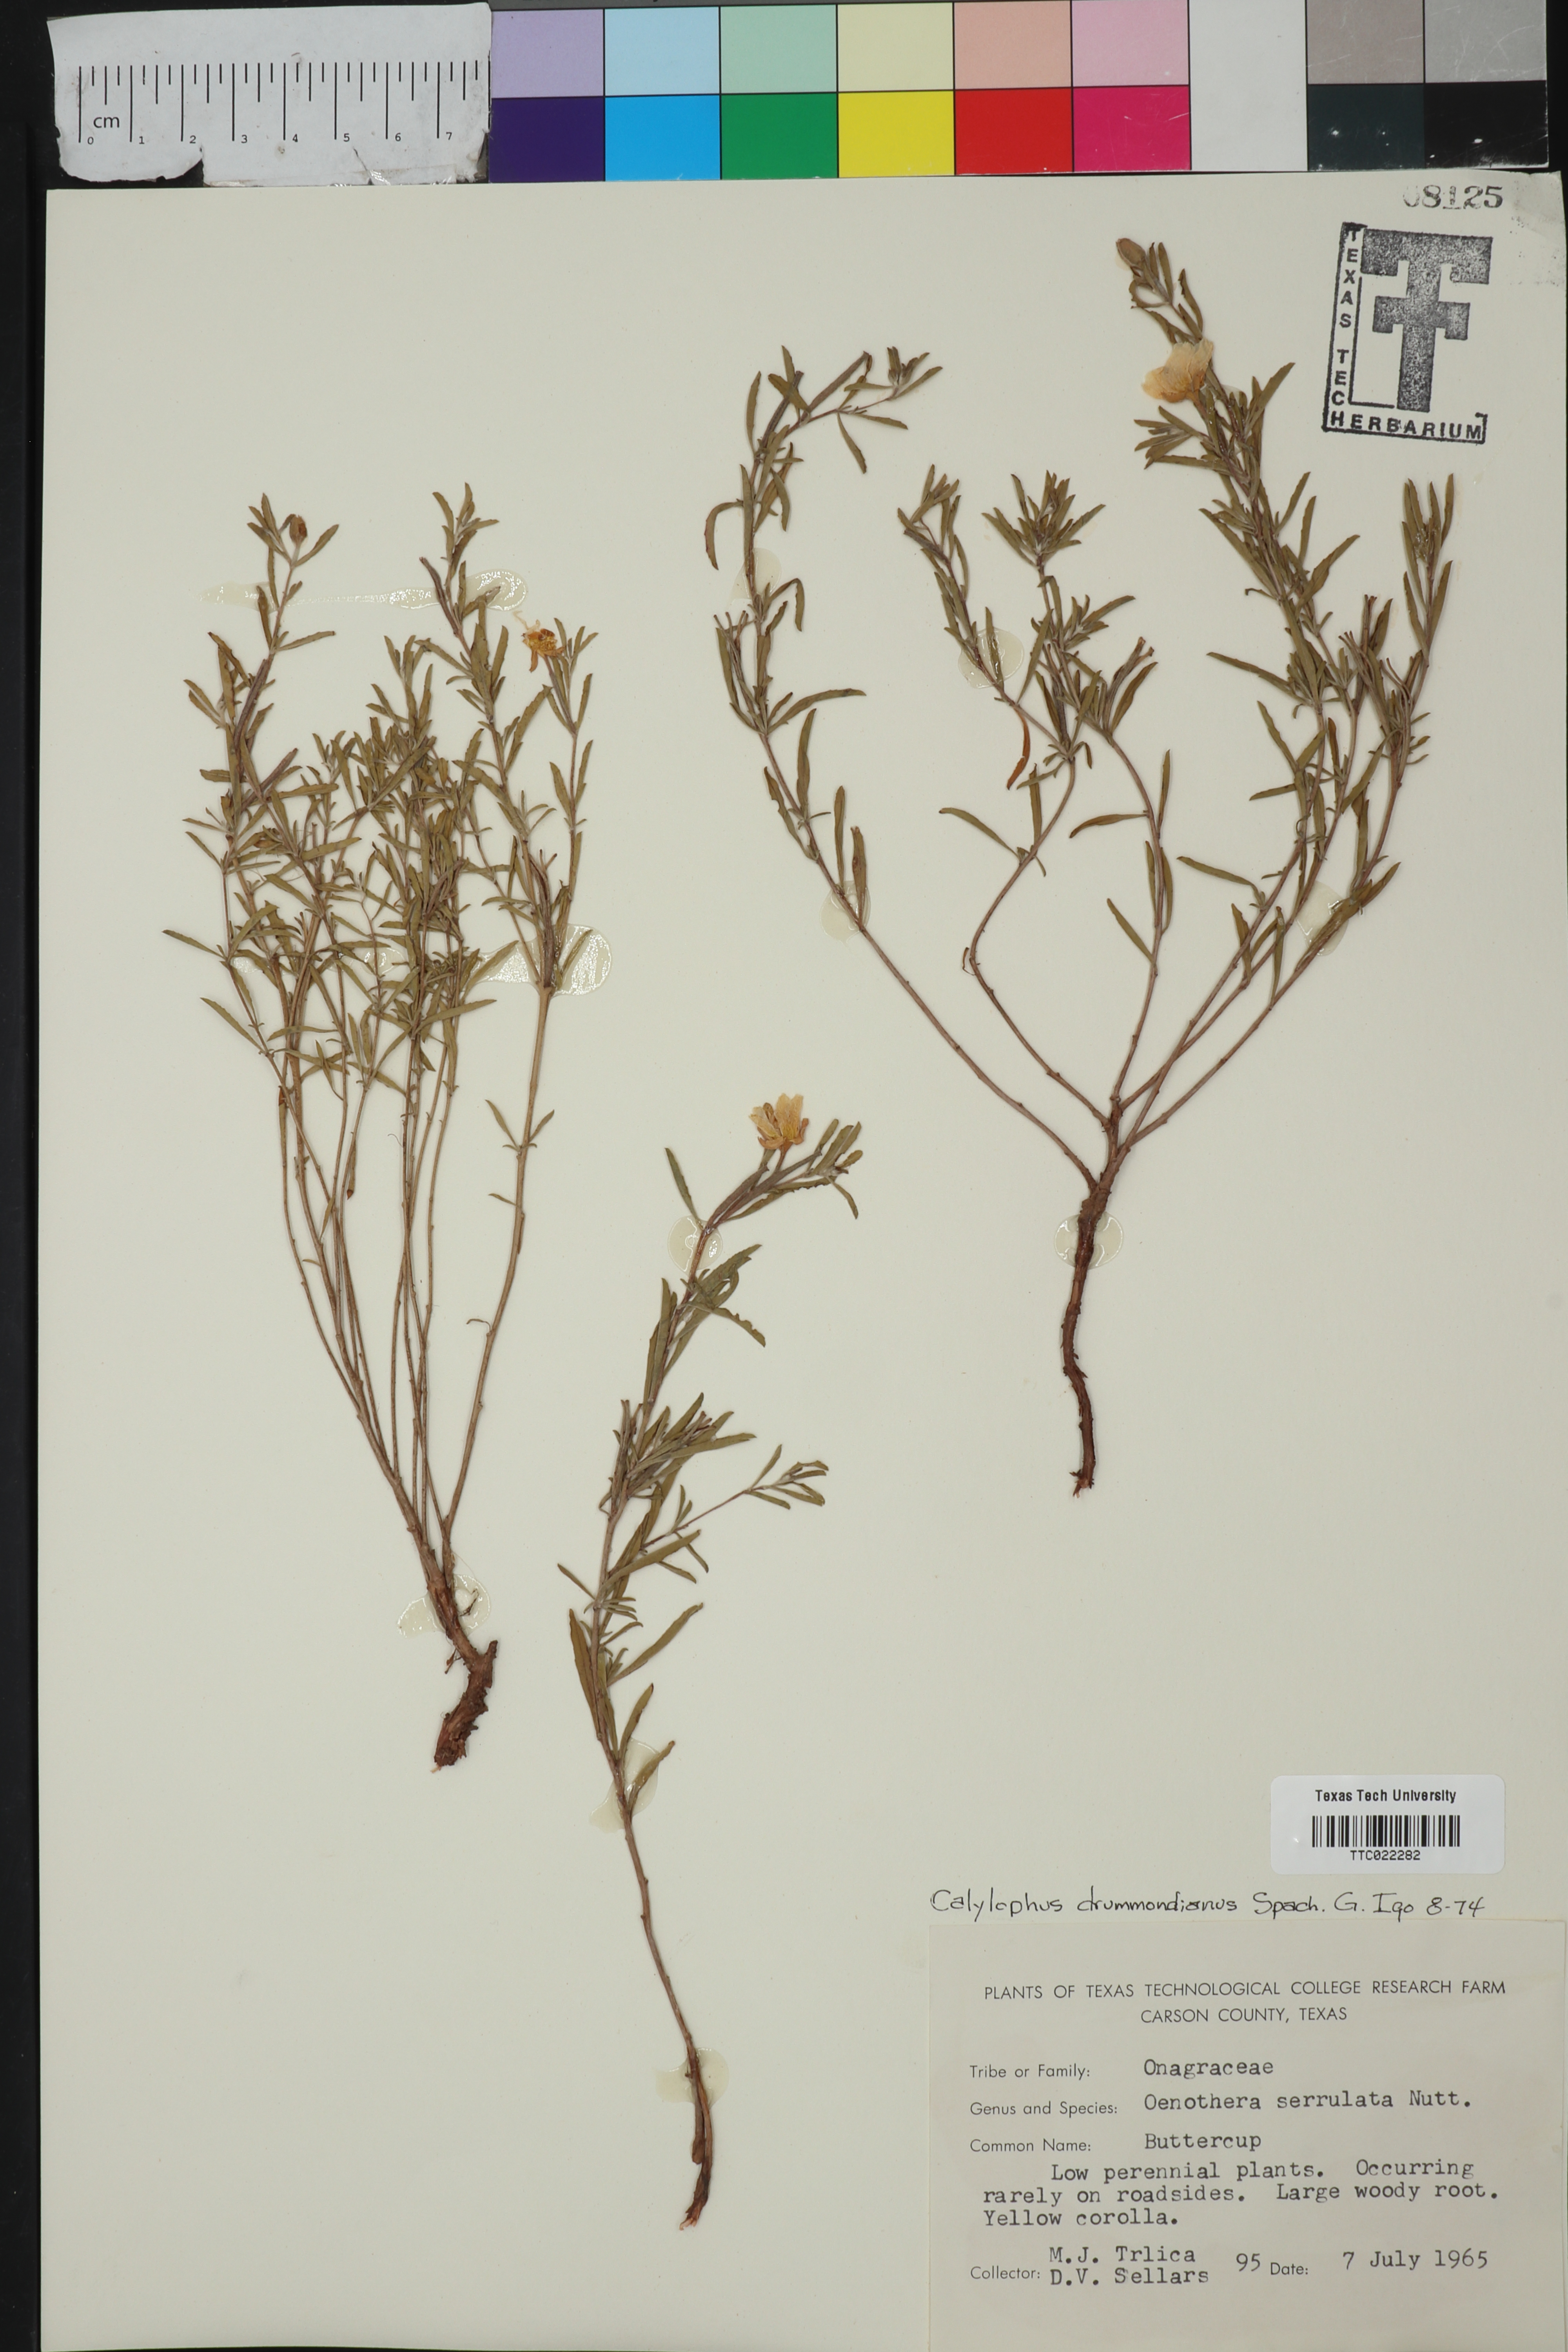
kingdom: Plantae
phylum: Tracheophyta
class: Magnoliopsida
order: Myrtales
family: Onagraceae
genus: Oenothera
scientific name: Oenothera serrulata
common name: Half-shrub calylophus
